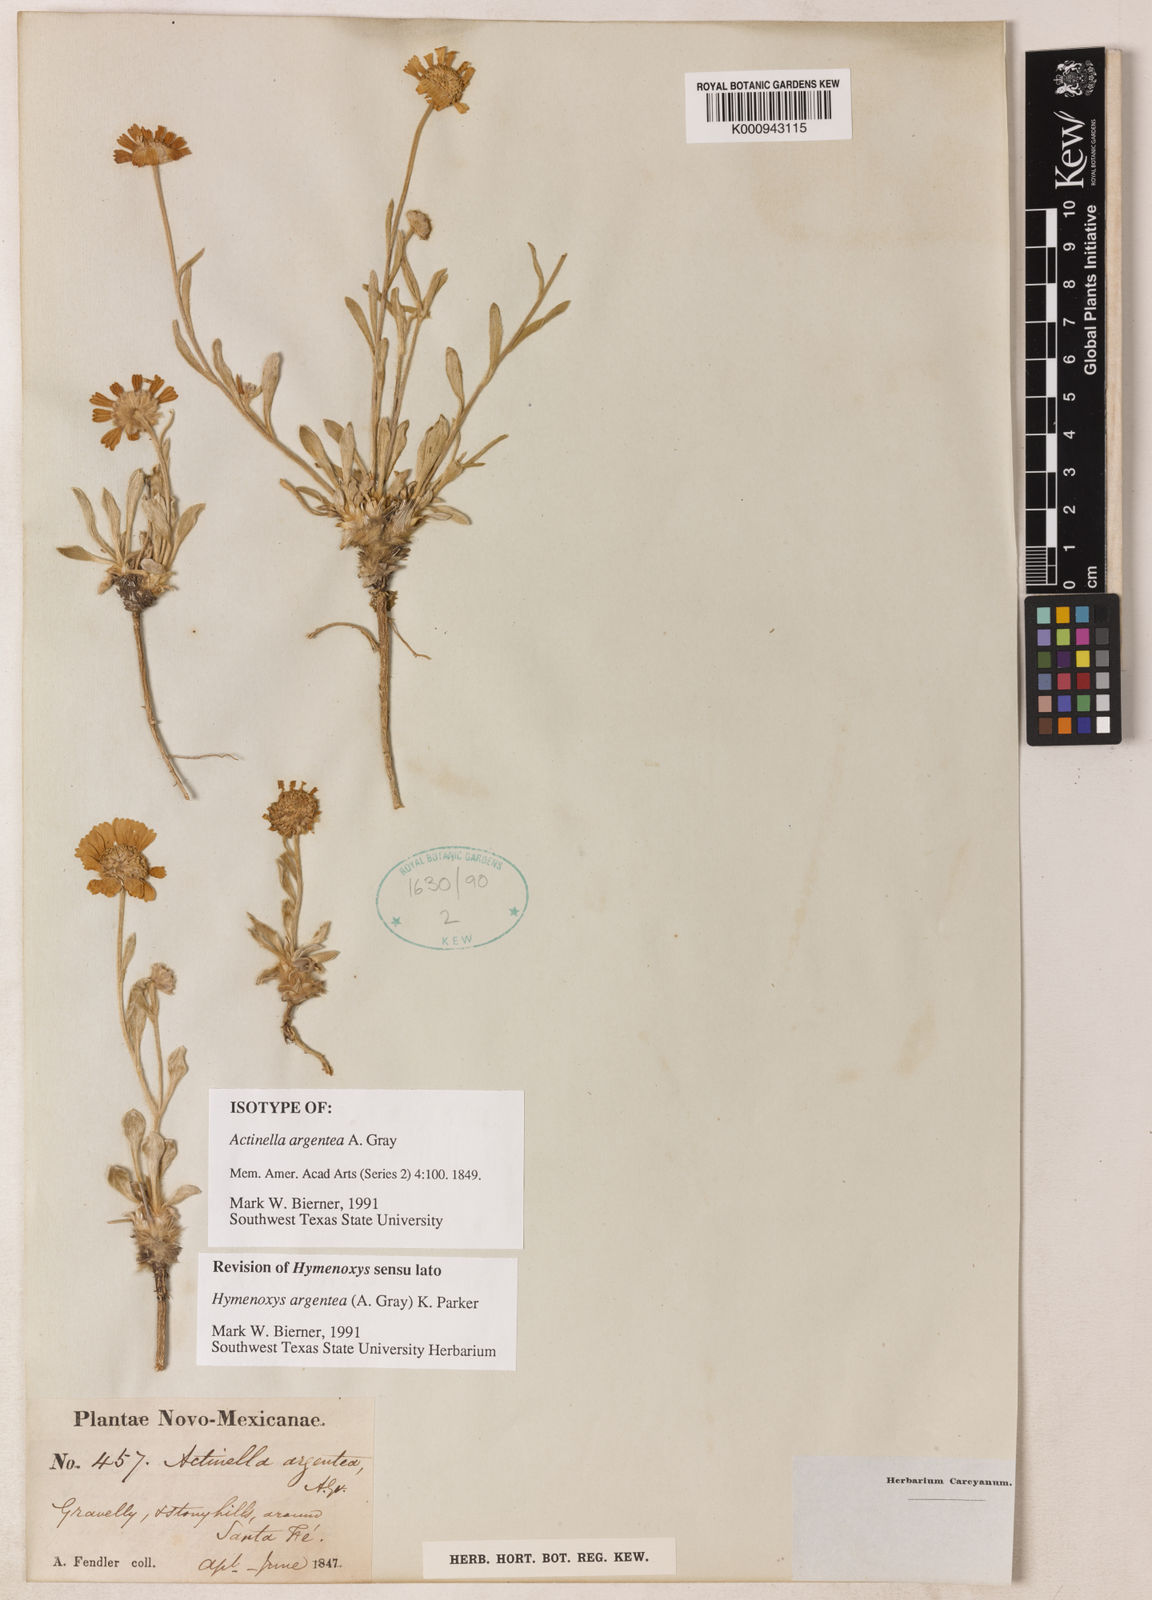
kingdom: Plantae
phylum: Tracheophyta
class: Magnoliopsida
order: Asterales
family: Asteraceae
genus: Tetraneuris
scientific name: Tetraneuris argentea
